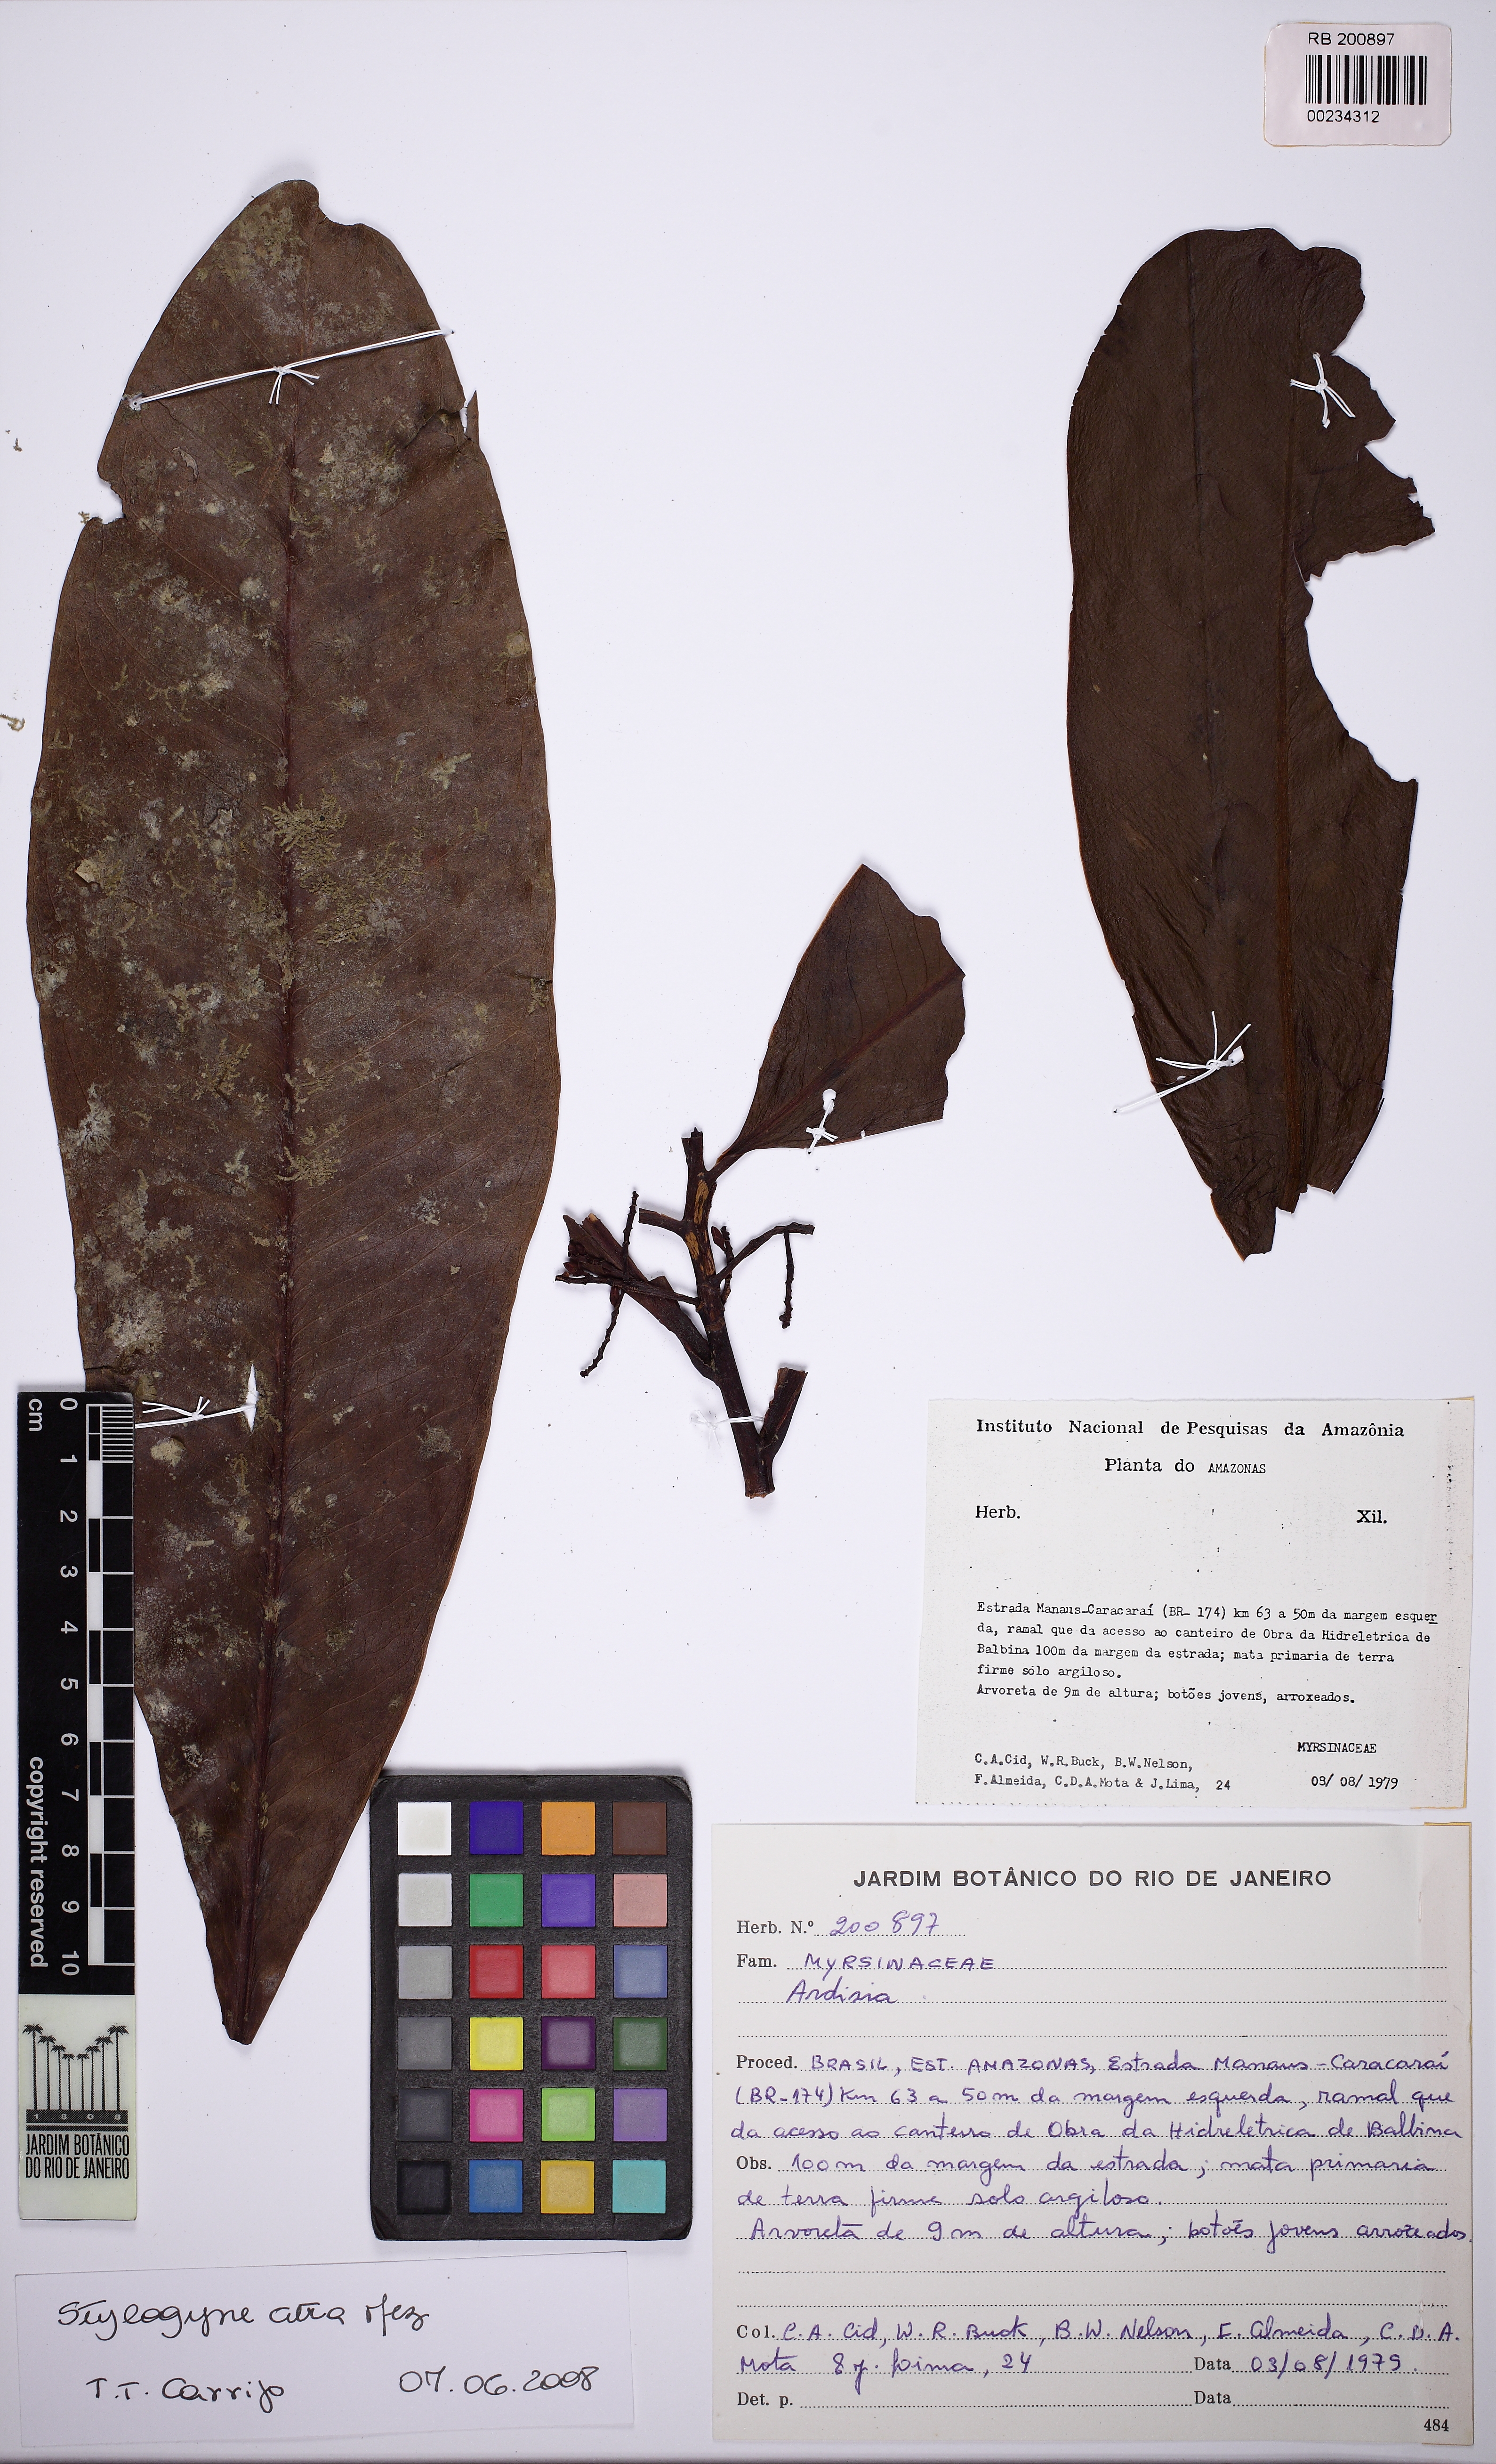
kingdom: Plantae
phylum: Tracheophyta
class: Magnoliopsida
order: Ericales
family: Primulaceae
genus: Ardisia
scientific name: Ardisia
